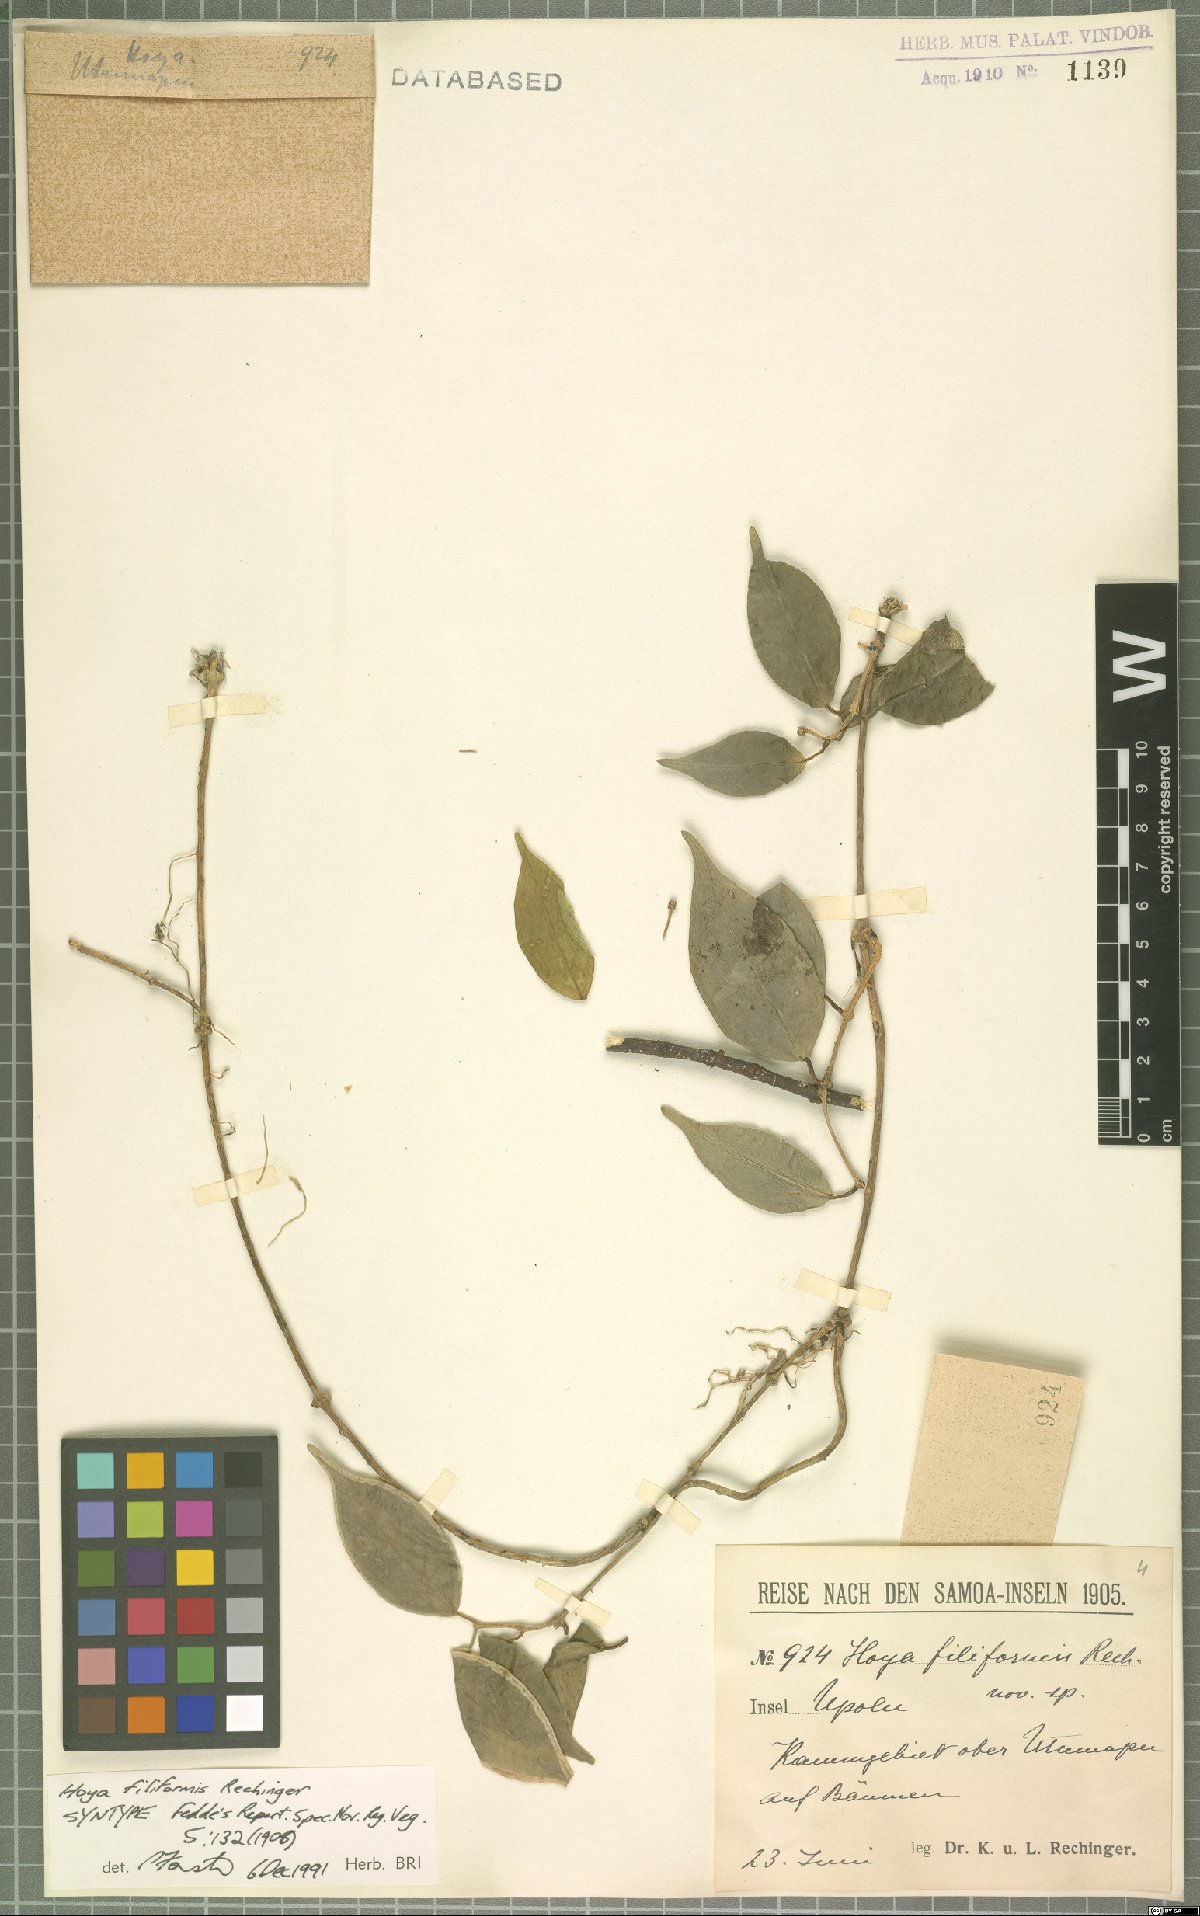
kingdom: Plantae
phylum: Tracheophyta
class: Magnoliopsida
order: Gentianales
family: Apocynaceae
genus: Hoya
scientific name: Hoya filiformis
